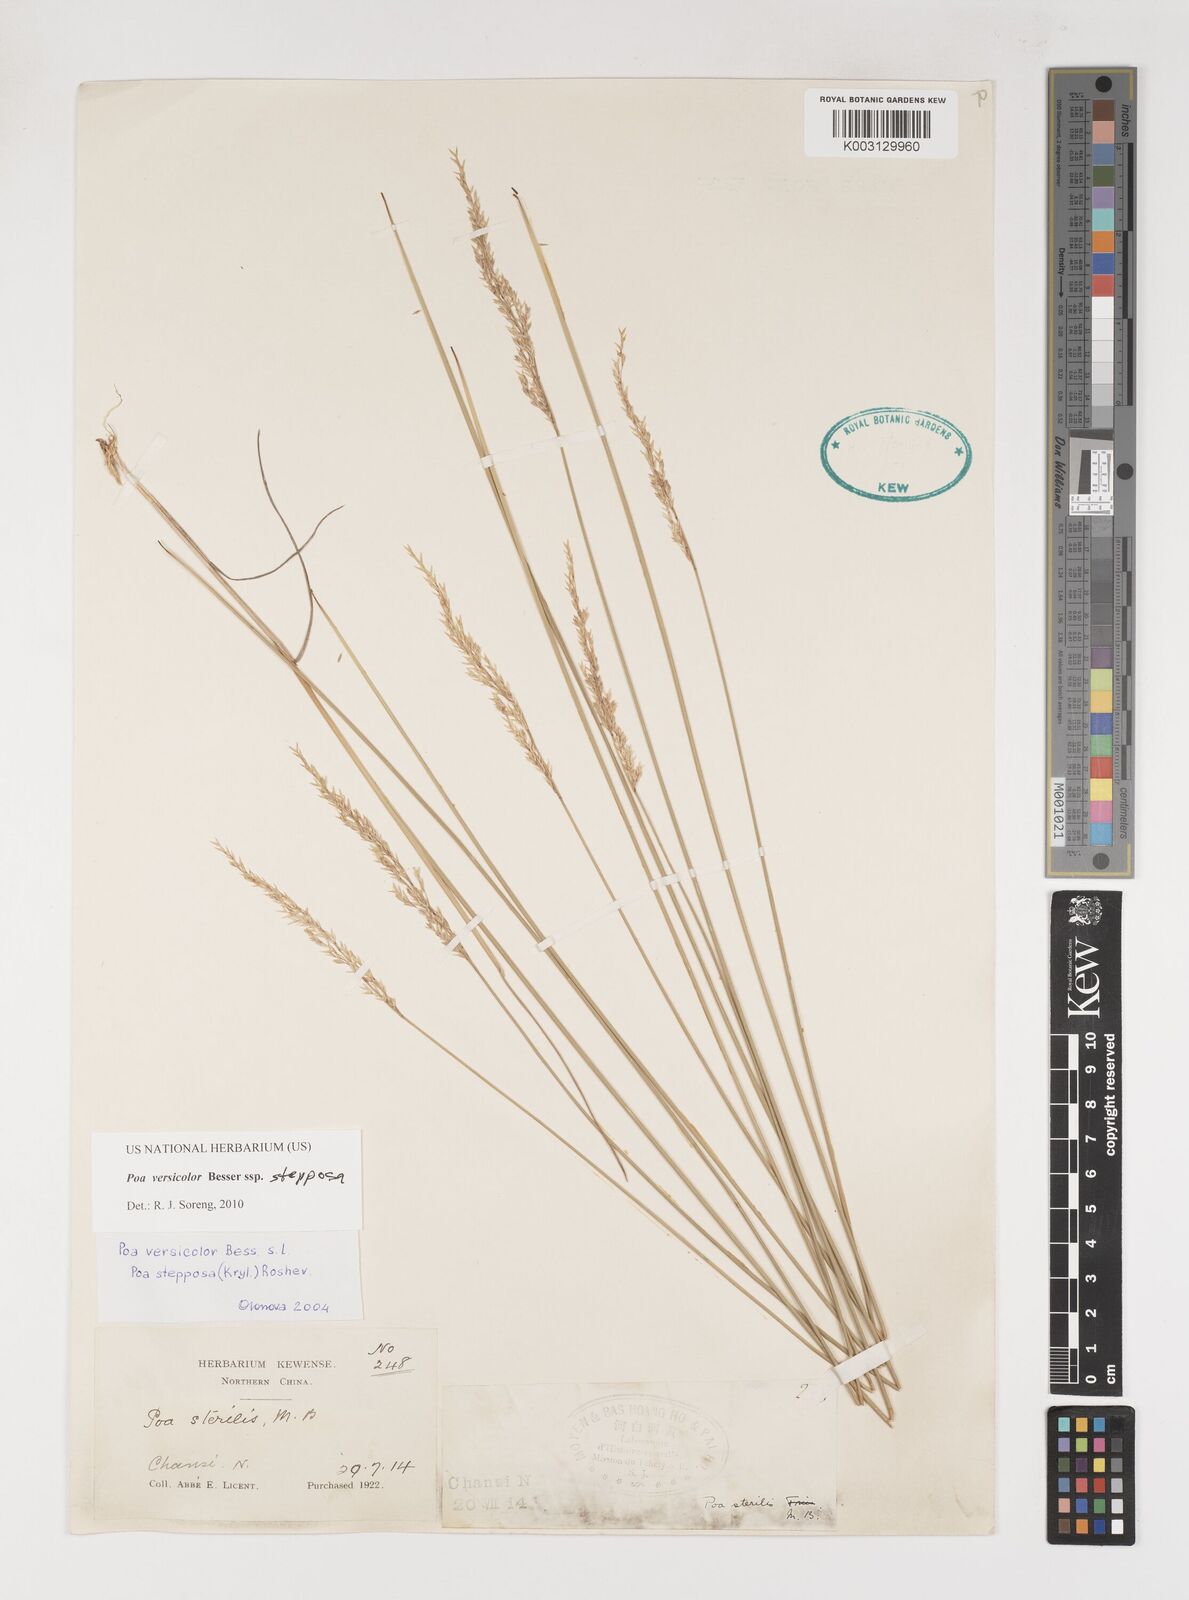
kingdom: Plantae
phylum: Tracheophyta
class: Liliopsida
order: Poales
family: Poaceae
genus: Poa
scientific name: Poa versicolor
